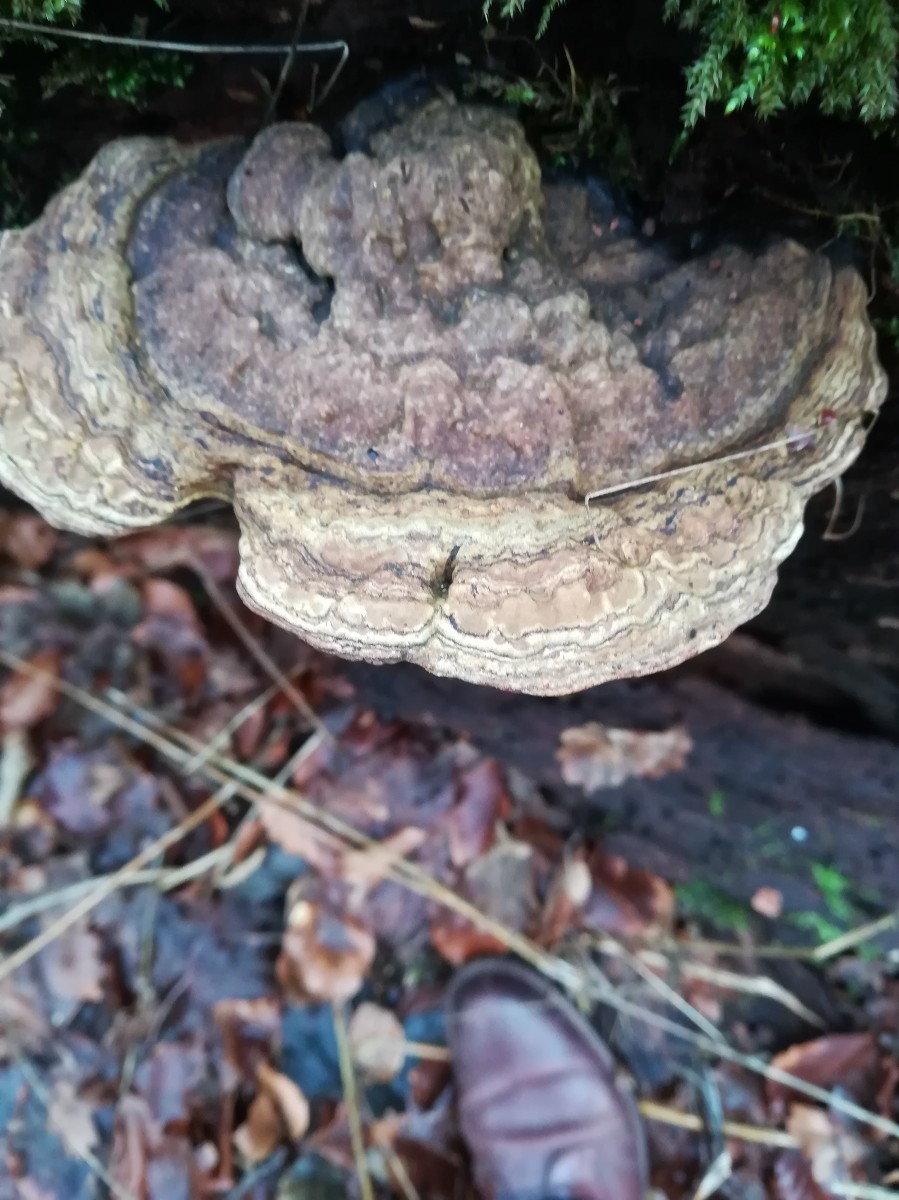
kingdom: Fungi
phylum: Basidiomycota
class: Agaricomycetes
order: Polyporales
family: Polyporaceae
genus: Ganoderma
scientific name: Ganoderma applanatum
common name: flad lakporesvamp
